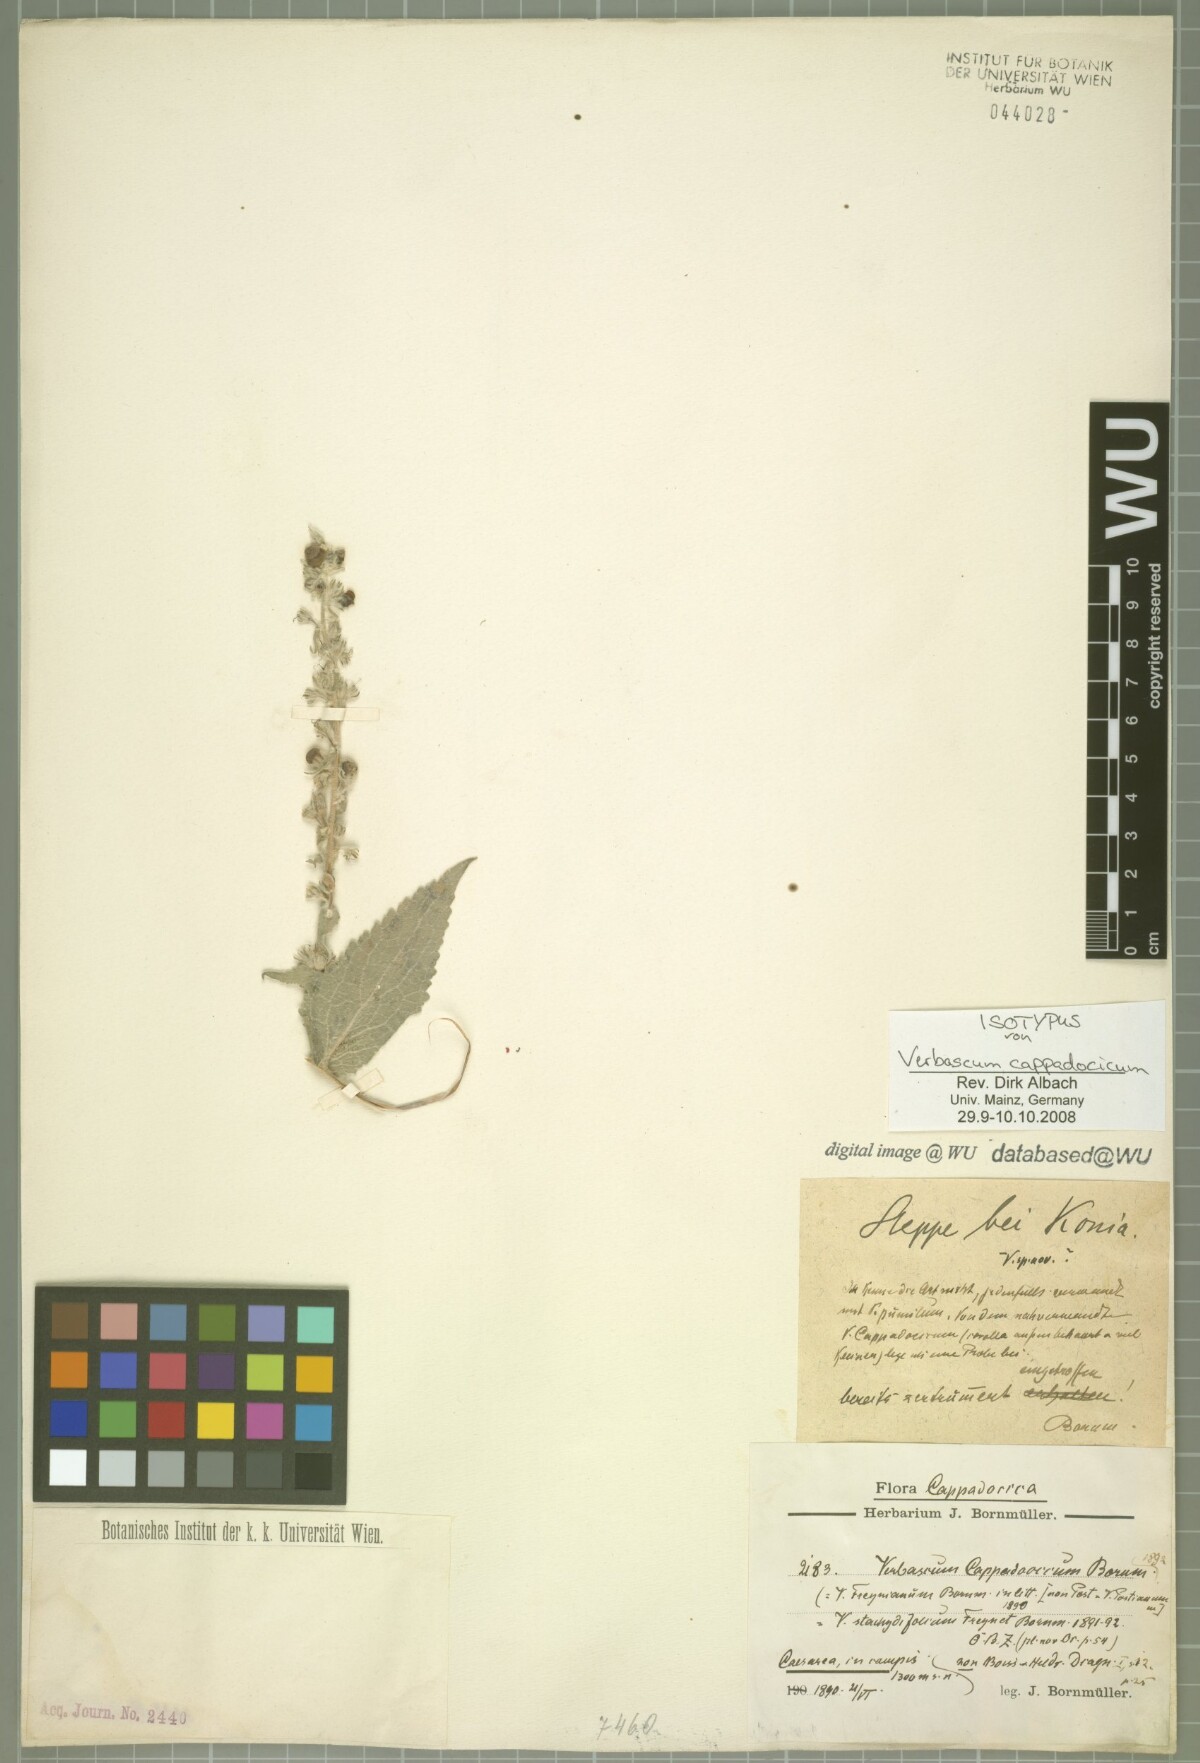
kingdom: Plantae
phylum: Tracheophyta
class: Magnoliopsida
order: Lamiales
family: Scrophulariaceae
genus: Verbascum
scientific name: Verbascum cappadocicum
